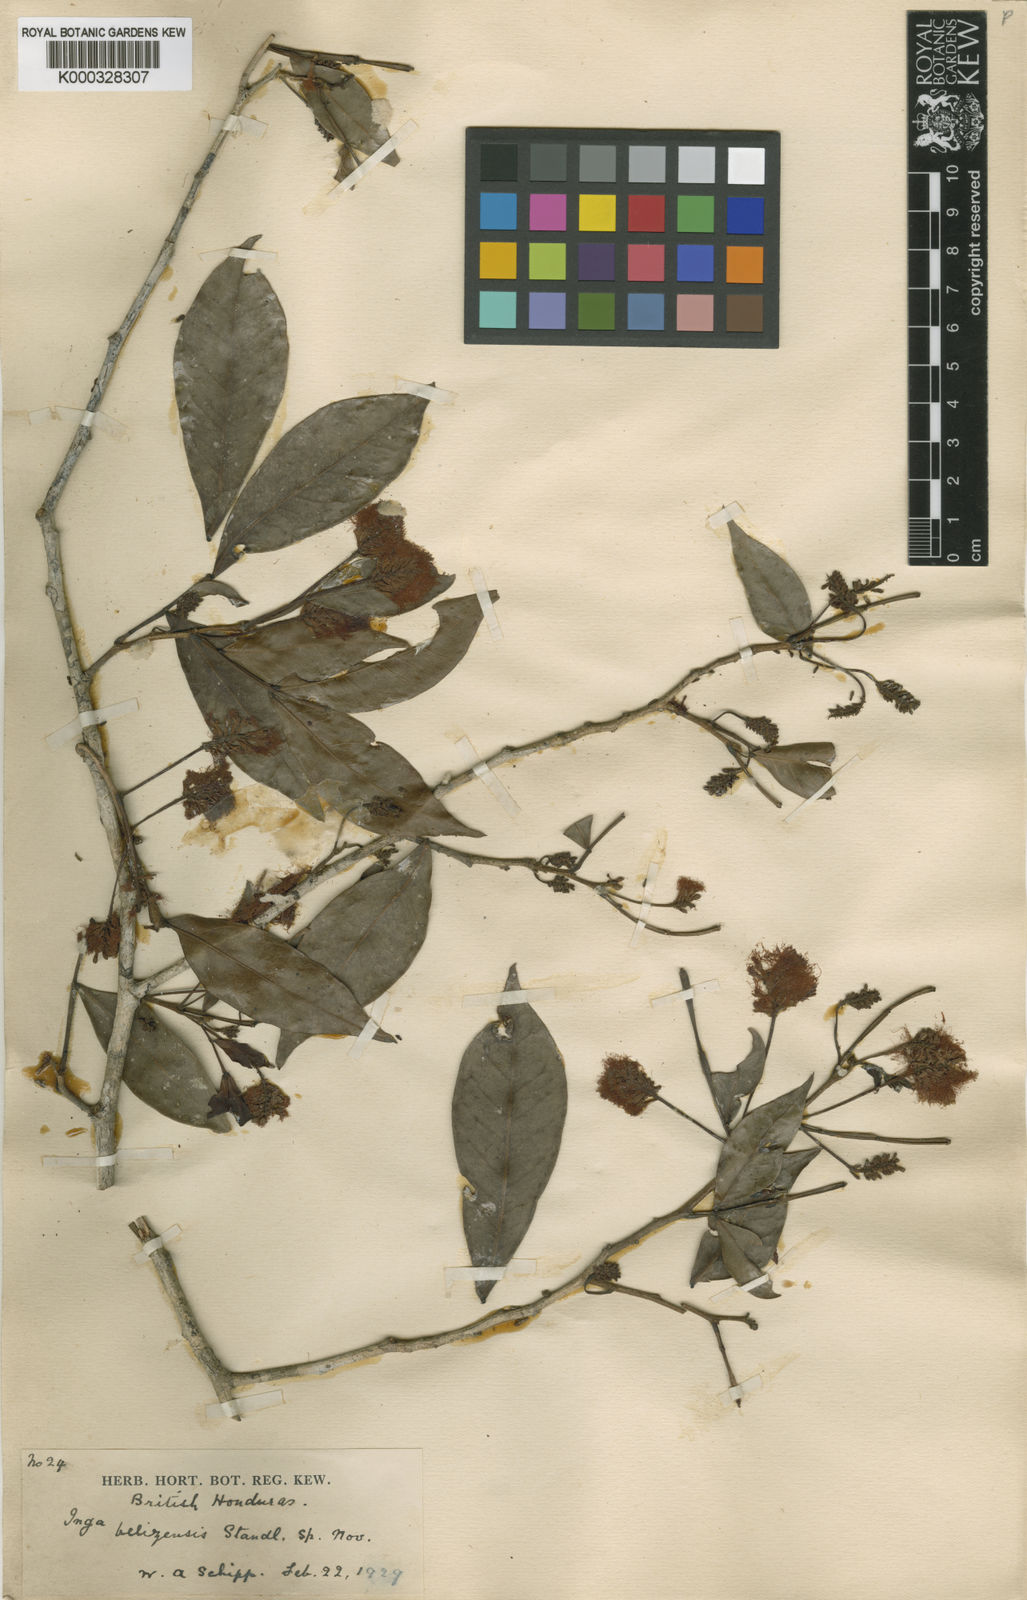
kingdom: Plantae
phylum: Tracheophyta
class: Magnoliopsida
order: Fabales
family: Fabaceae
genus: Inga
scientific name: Inga belizensis
